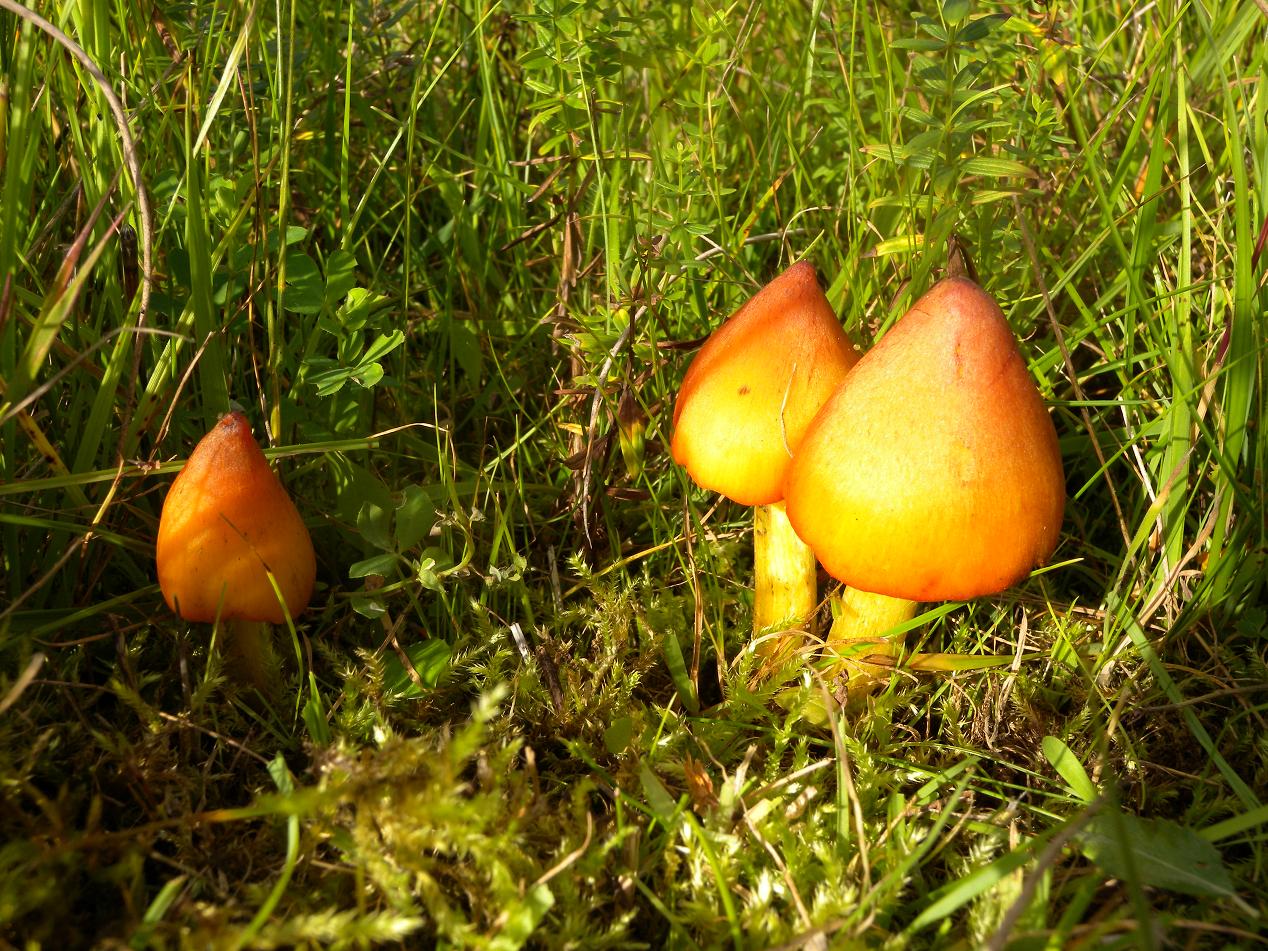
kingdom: Fungi
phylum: Basidiomycota
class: Agaricomycetes
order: Agaricales
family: Hygrophoraceae
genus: Hygrocybe
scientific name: Hygrocybe conica
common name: kegle-vokshat
